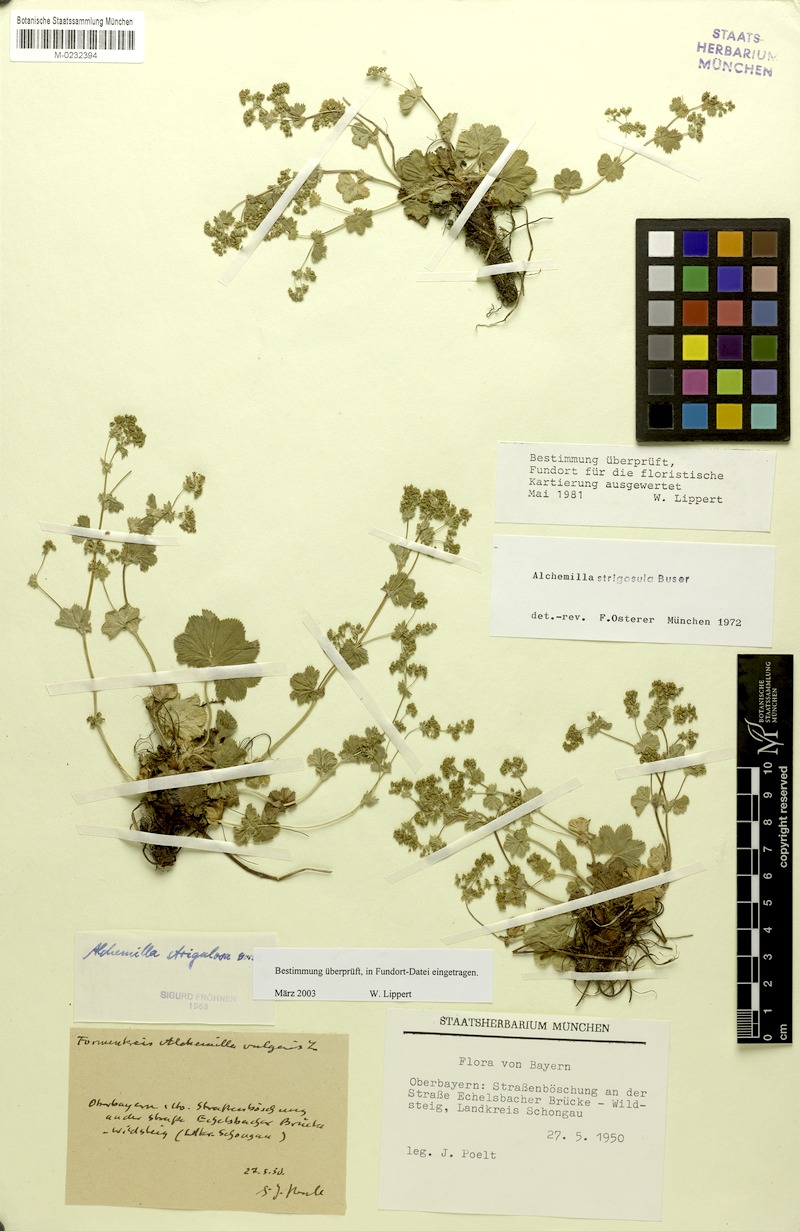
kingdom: Plantae
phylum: Tracheophyta
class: Magnoliopsida
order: Rosales
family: Rosaceae
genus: Alchemilla
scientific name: Alchemilla strigosula
